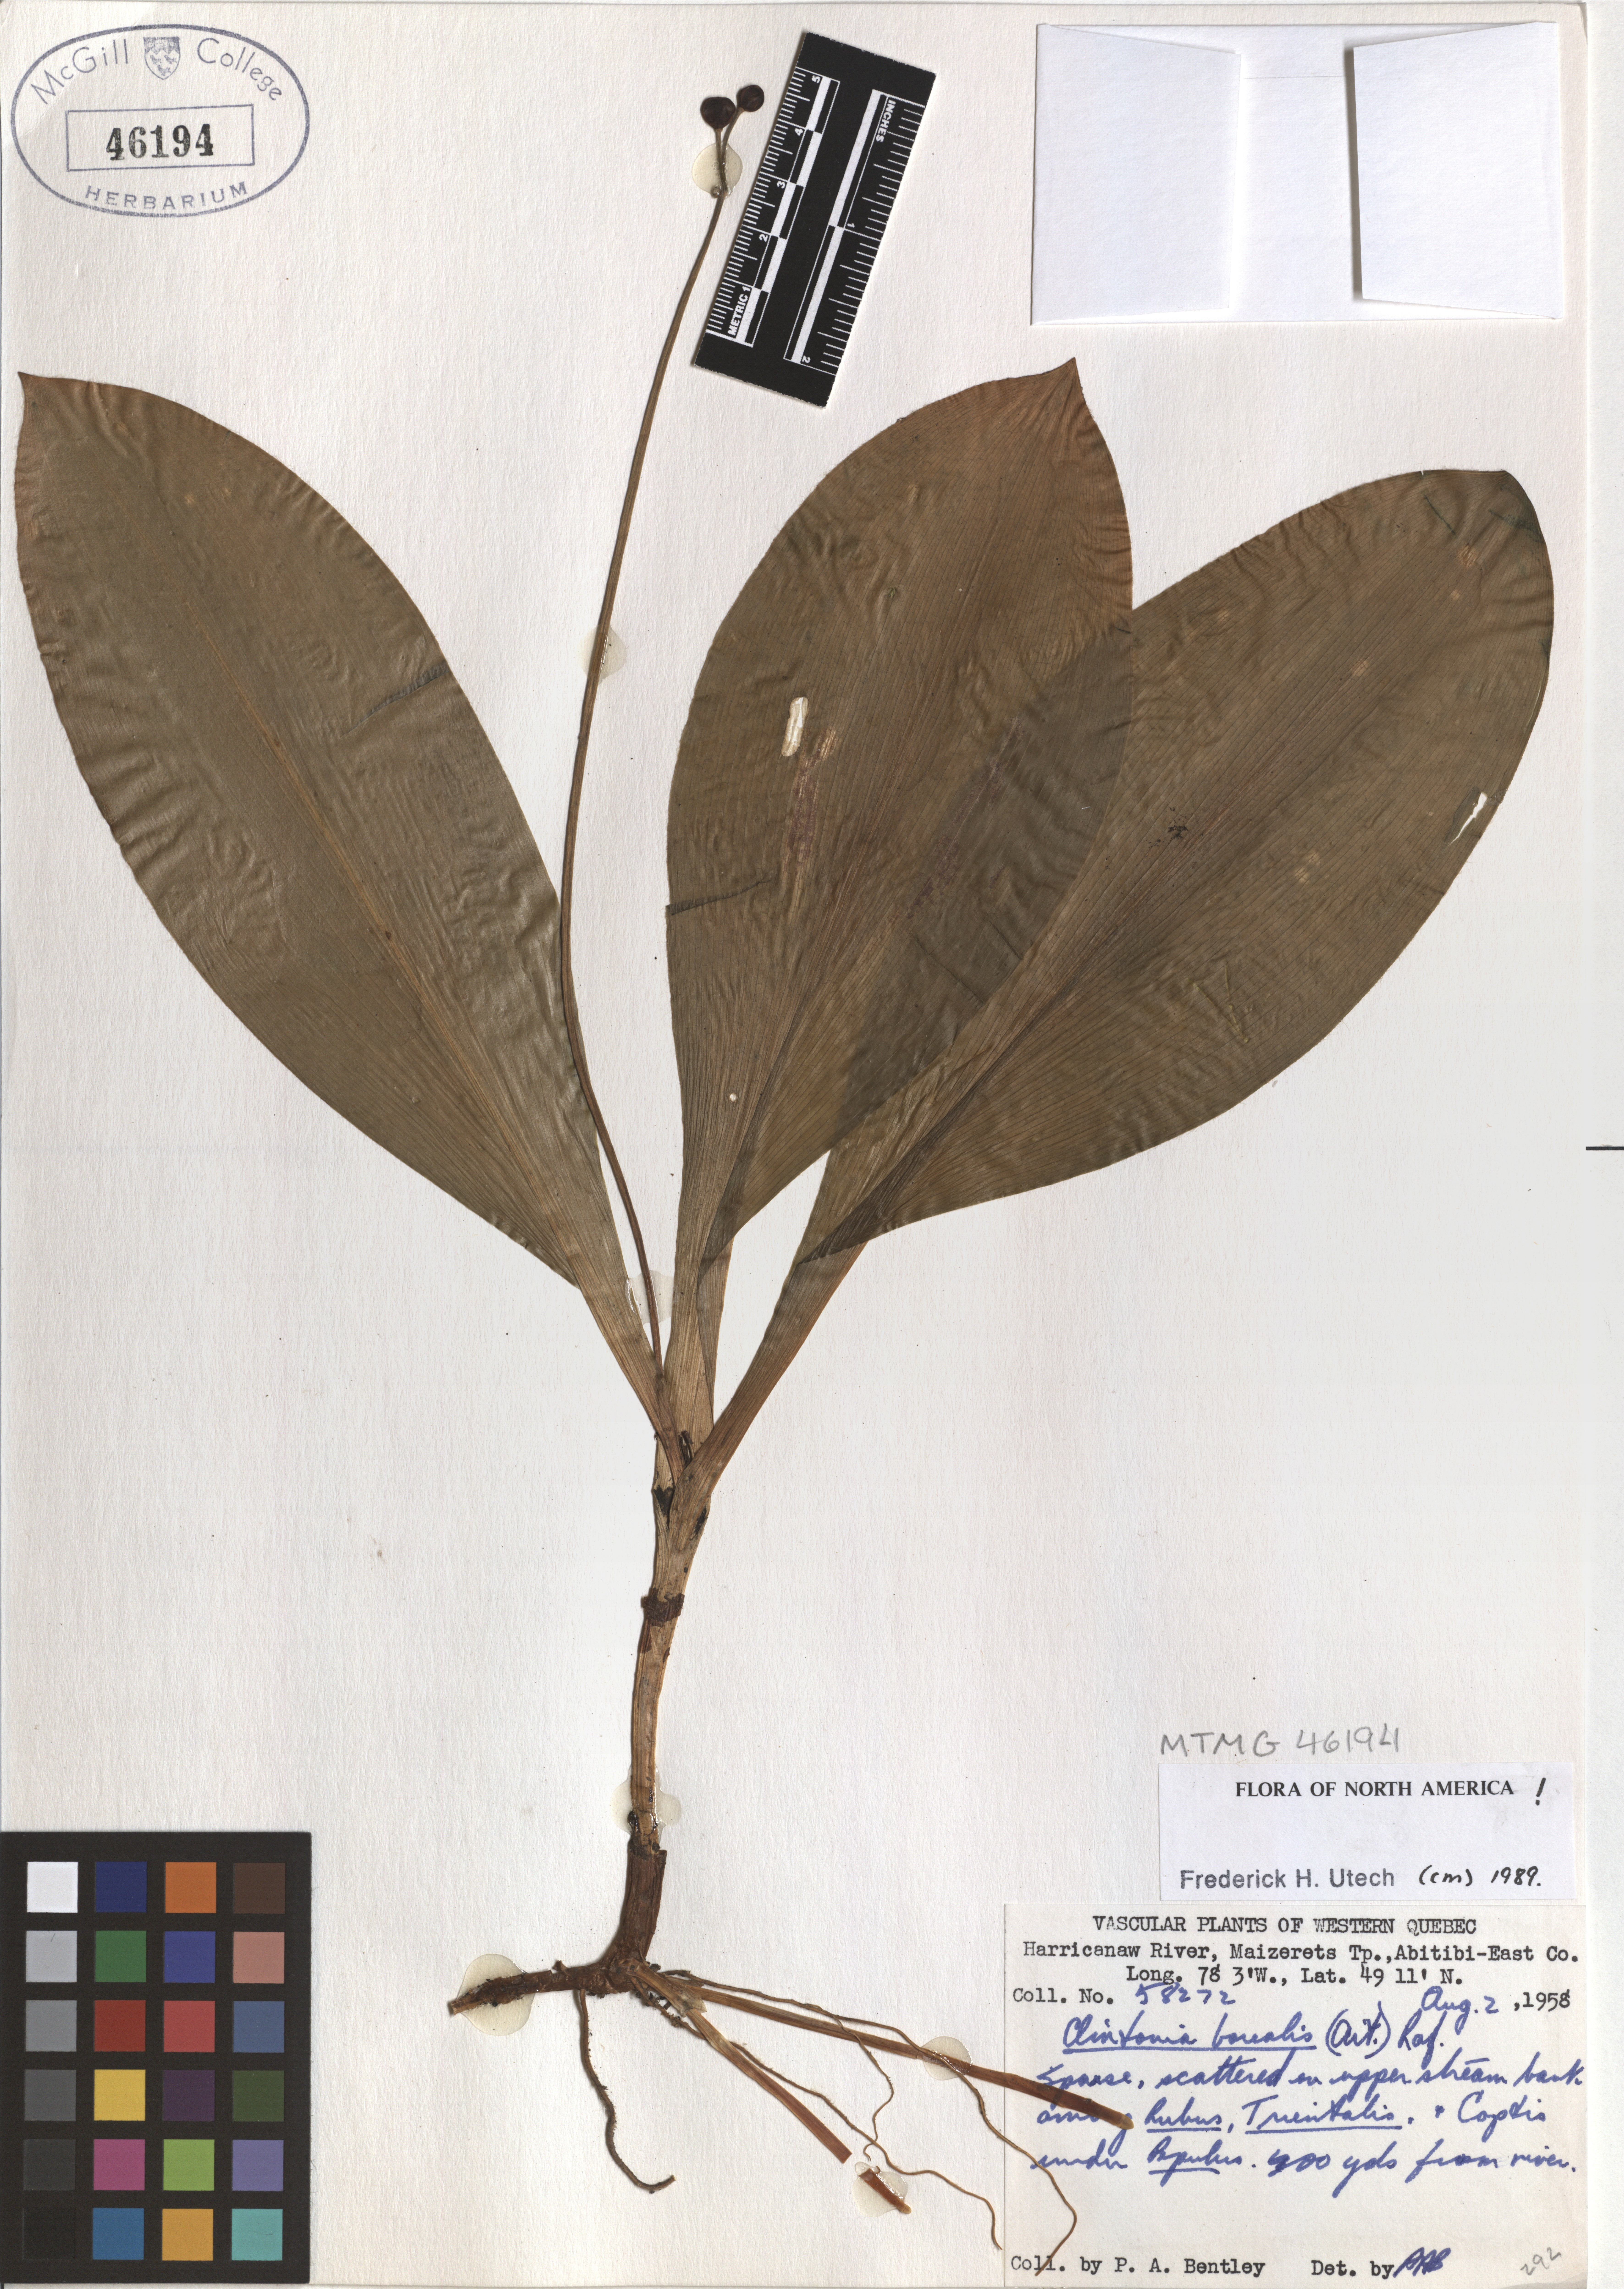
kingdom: Plantae
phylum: Tracheophyta
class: Liliopsida
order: Liliales
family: Liliaceae
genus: Clintonia
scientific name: Clintonia borealis
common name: Yellow clintonia
